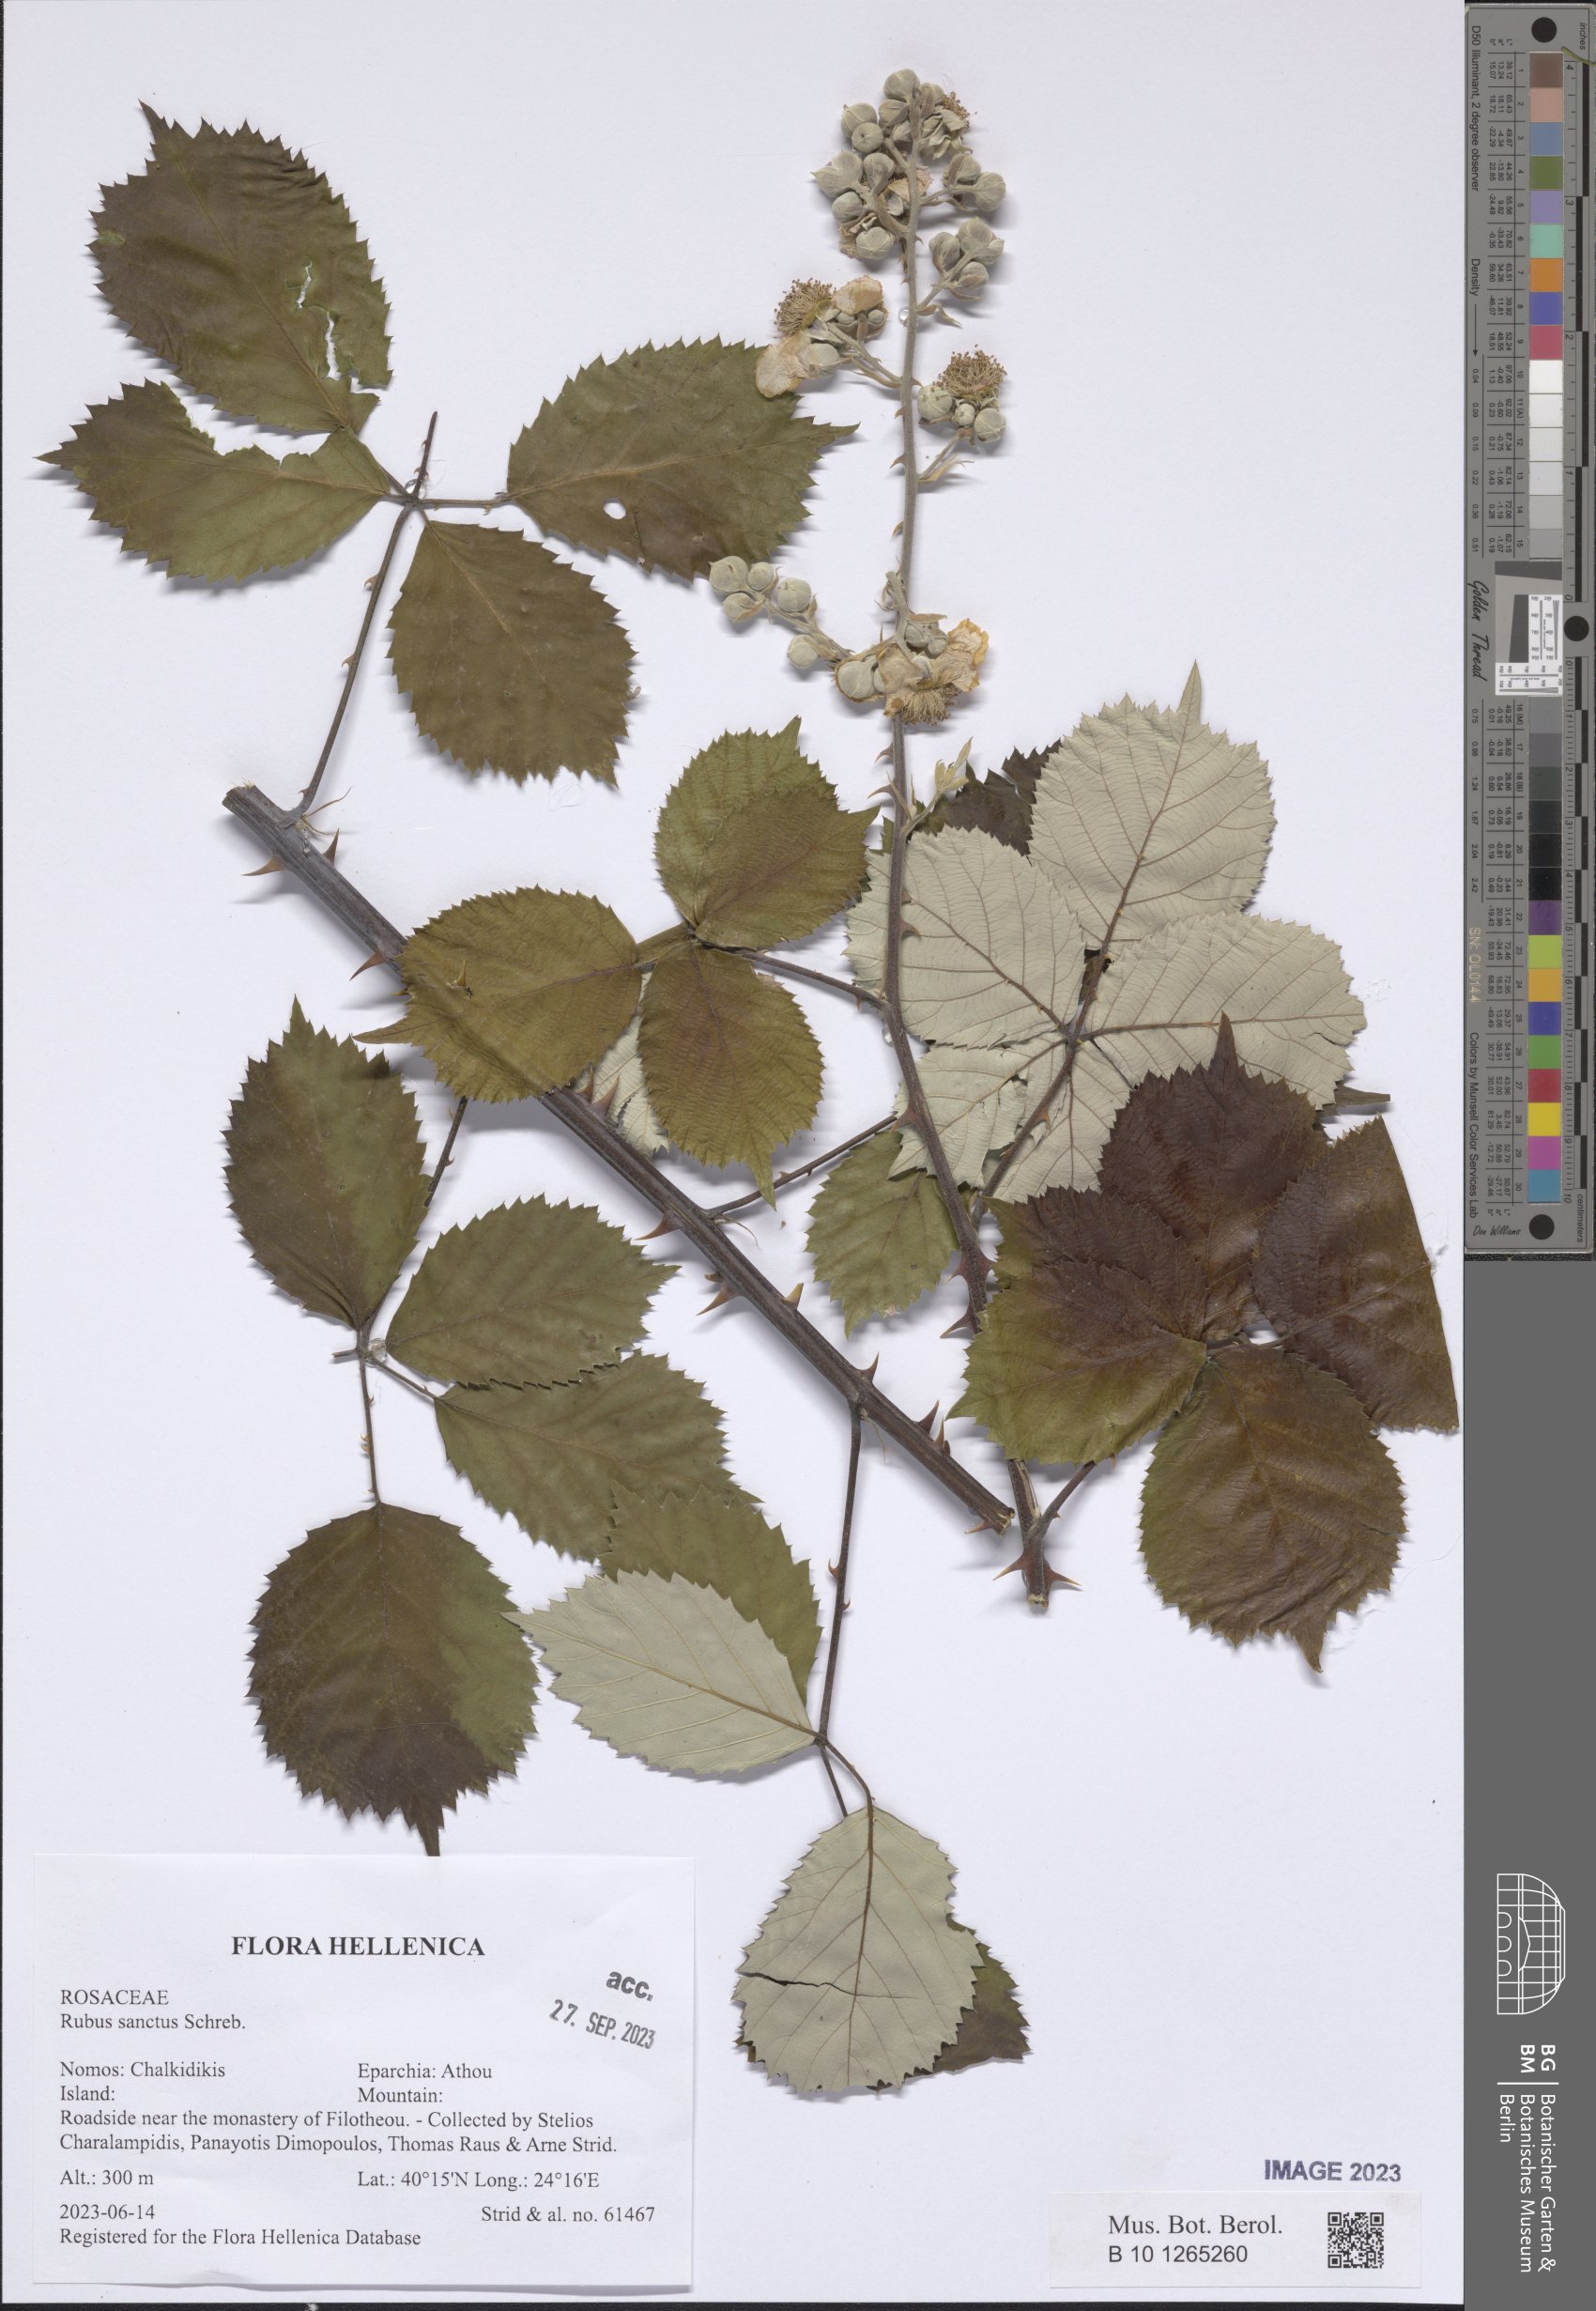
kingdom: Plantae
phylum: Tracheophyta
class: Magnoliopsida
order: Rosales
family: Rosaceae
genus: Rubus
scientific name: Rubus sanctus
